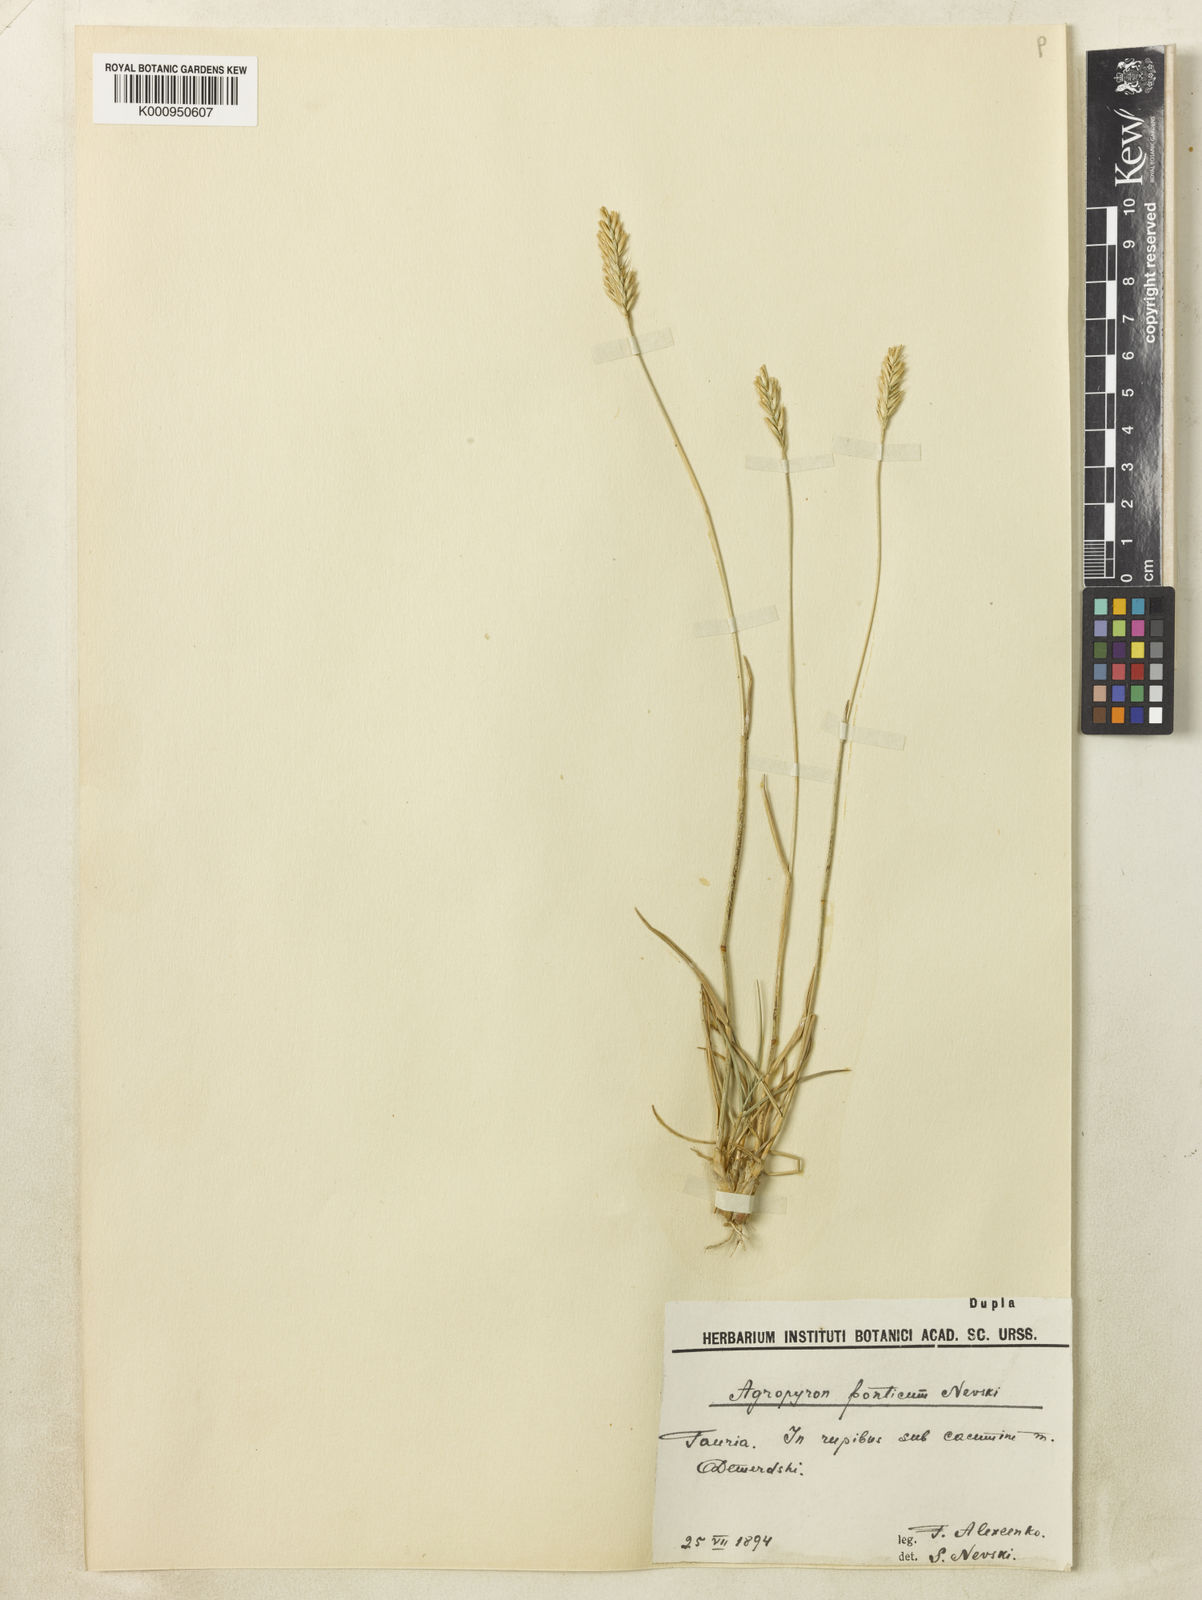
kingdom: Plantae
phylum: Tracheophyta
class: Liliopsida
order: Poales
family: Poaceae
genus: Agropyron
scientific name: Agropyron cristatum
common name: Crested wheatgrass
